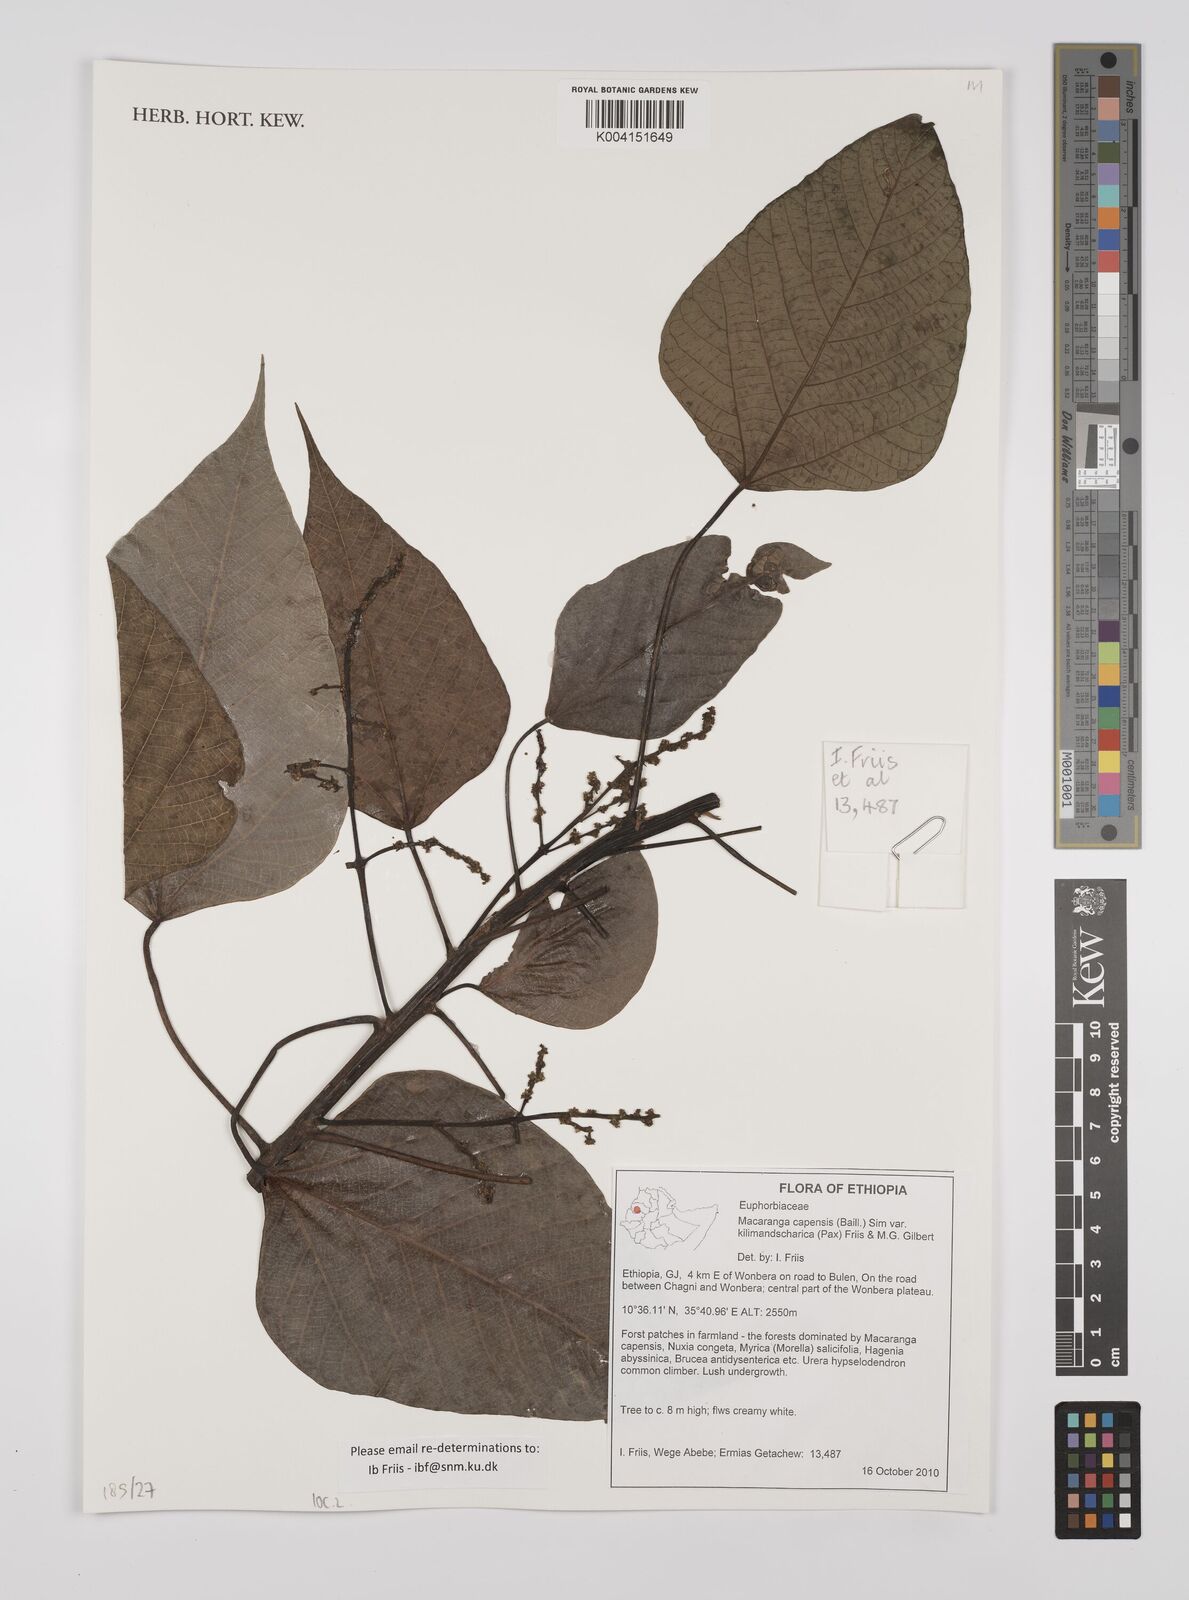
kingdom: Plantae
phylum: Tracheophyta
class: Magnoliopsida
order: Malpighiales
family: Euphorbiaceae
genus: Macaranga
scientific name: Macaranga kilimandscharica
